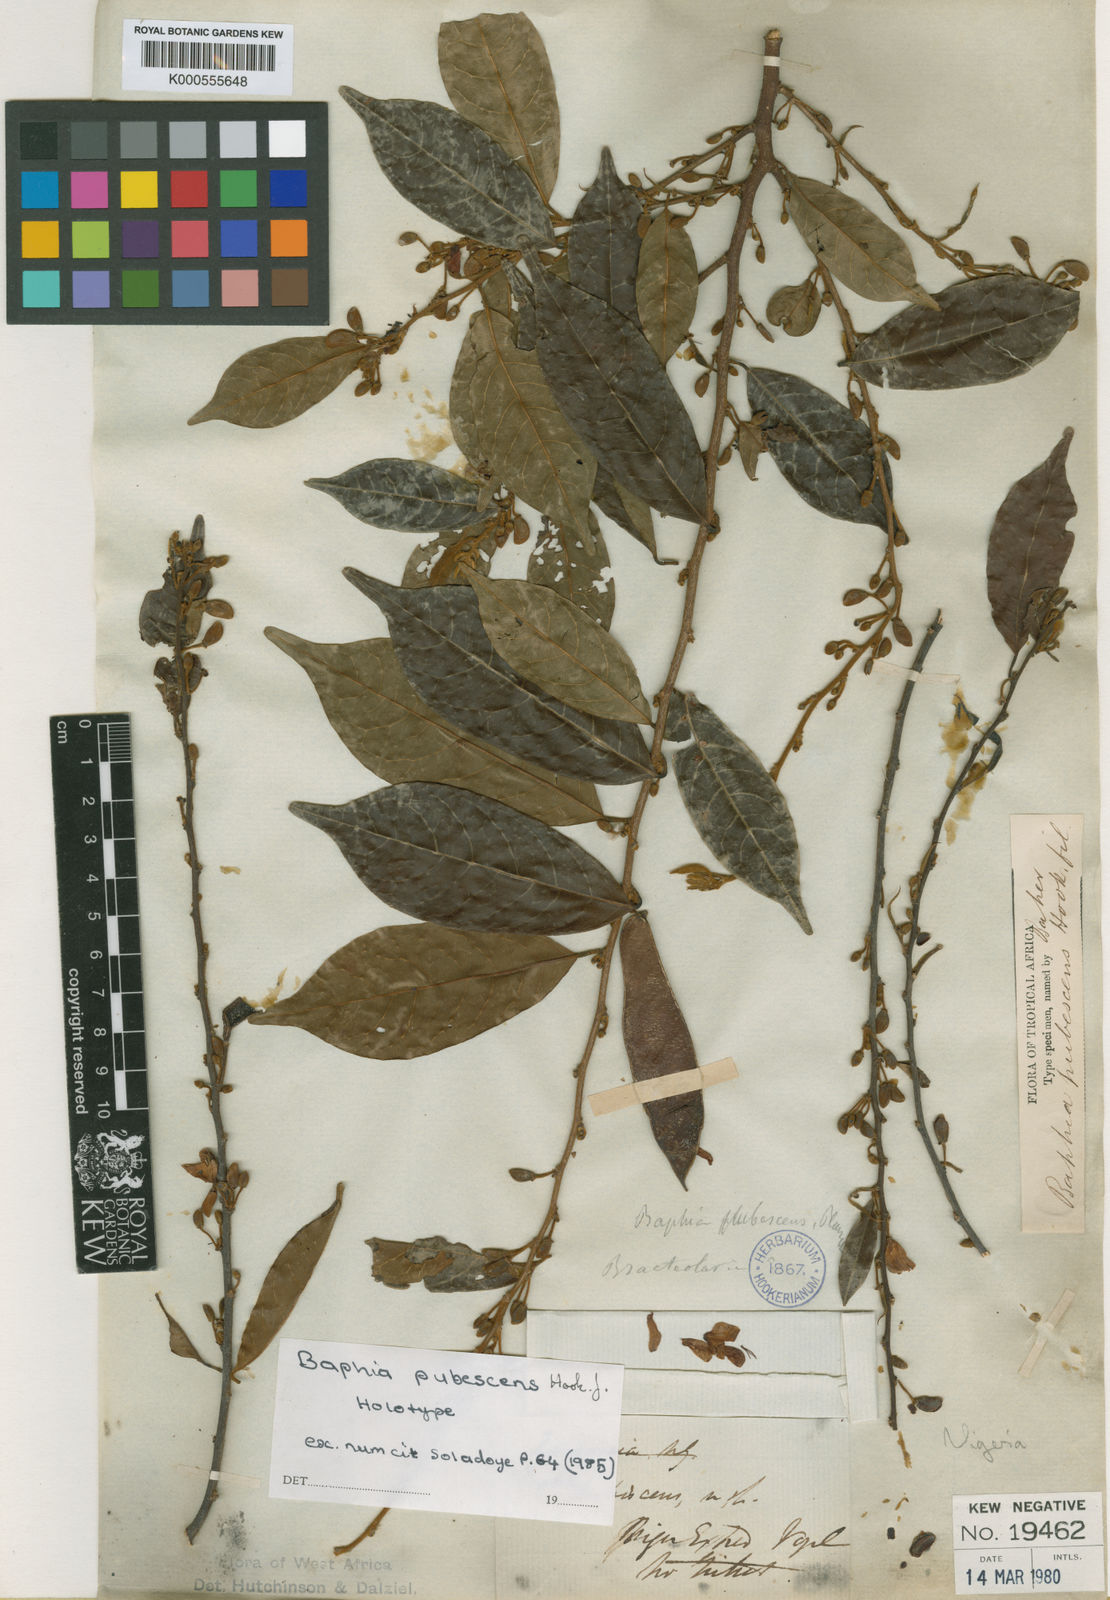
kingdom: Plantae
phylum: Tracheophyta
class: Magnoliopsida
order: Fabales
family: Fabaceae
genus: Baphia
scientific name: Baphia pubescens
